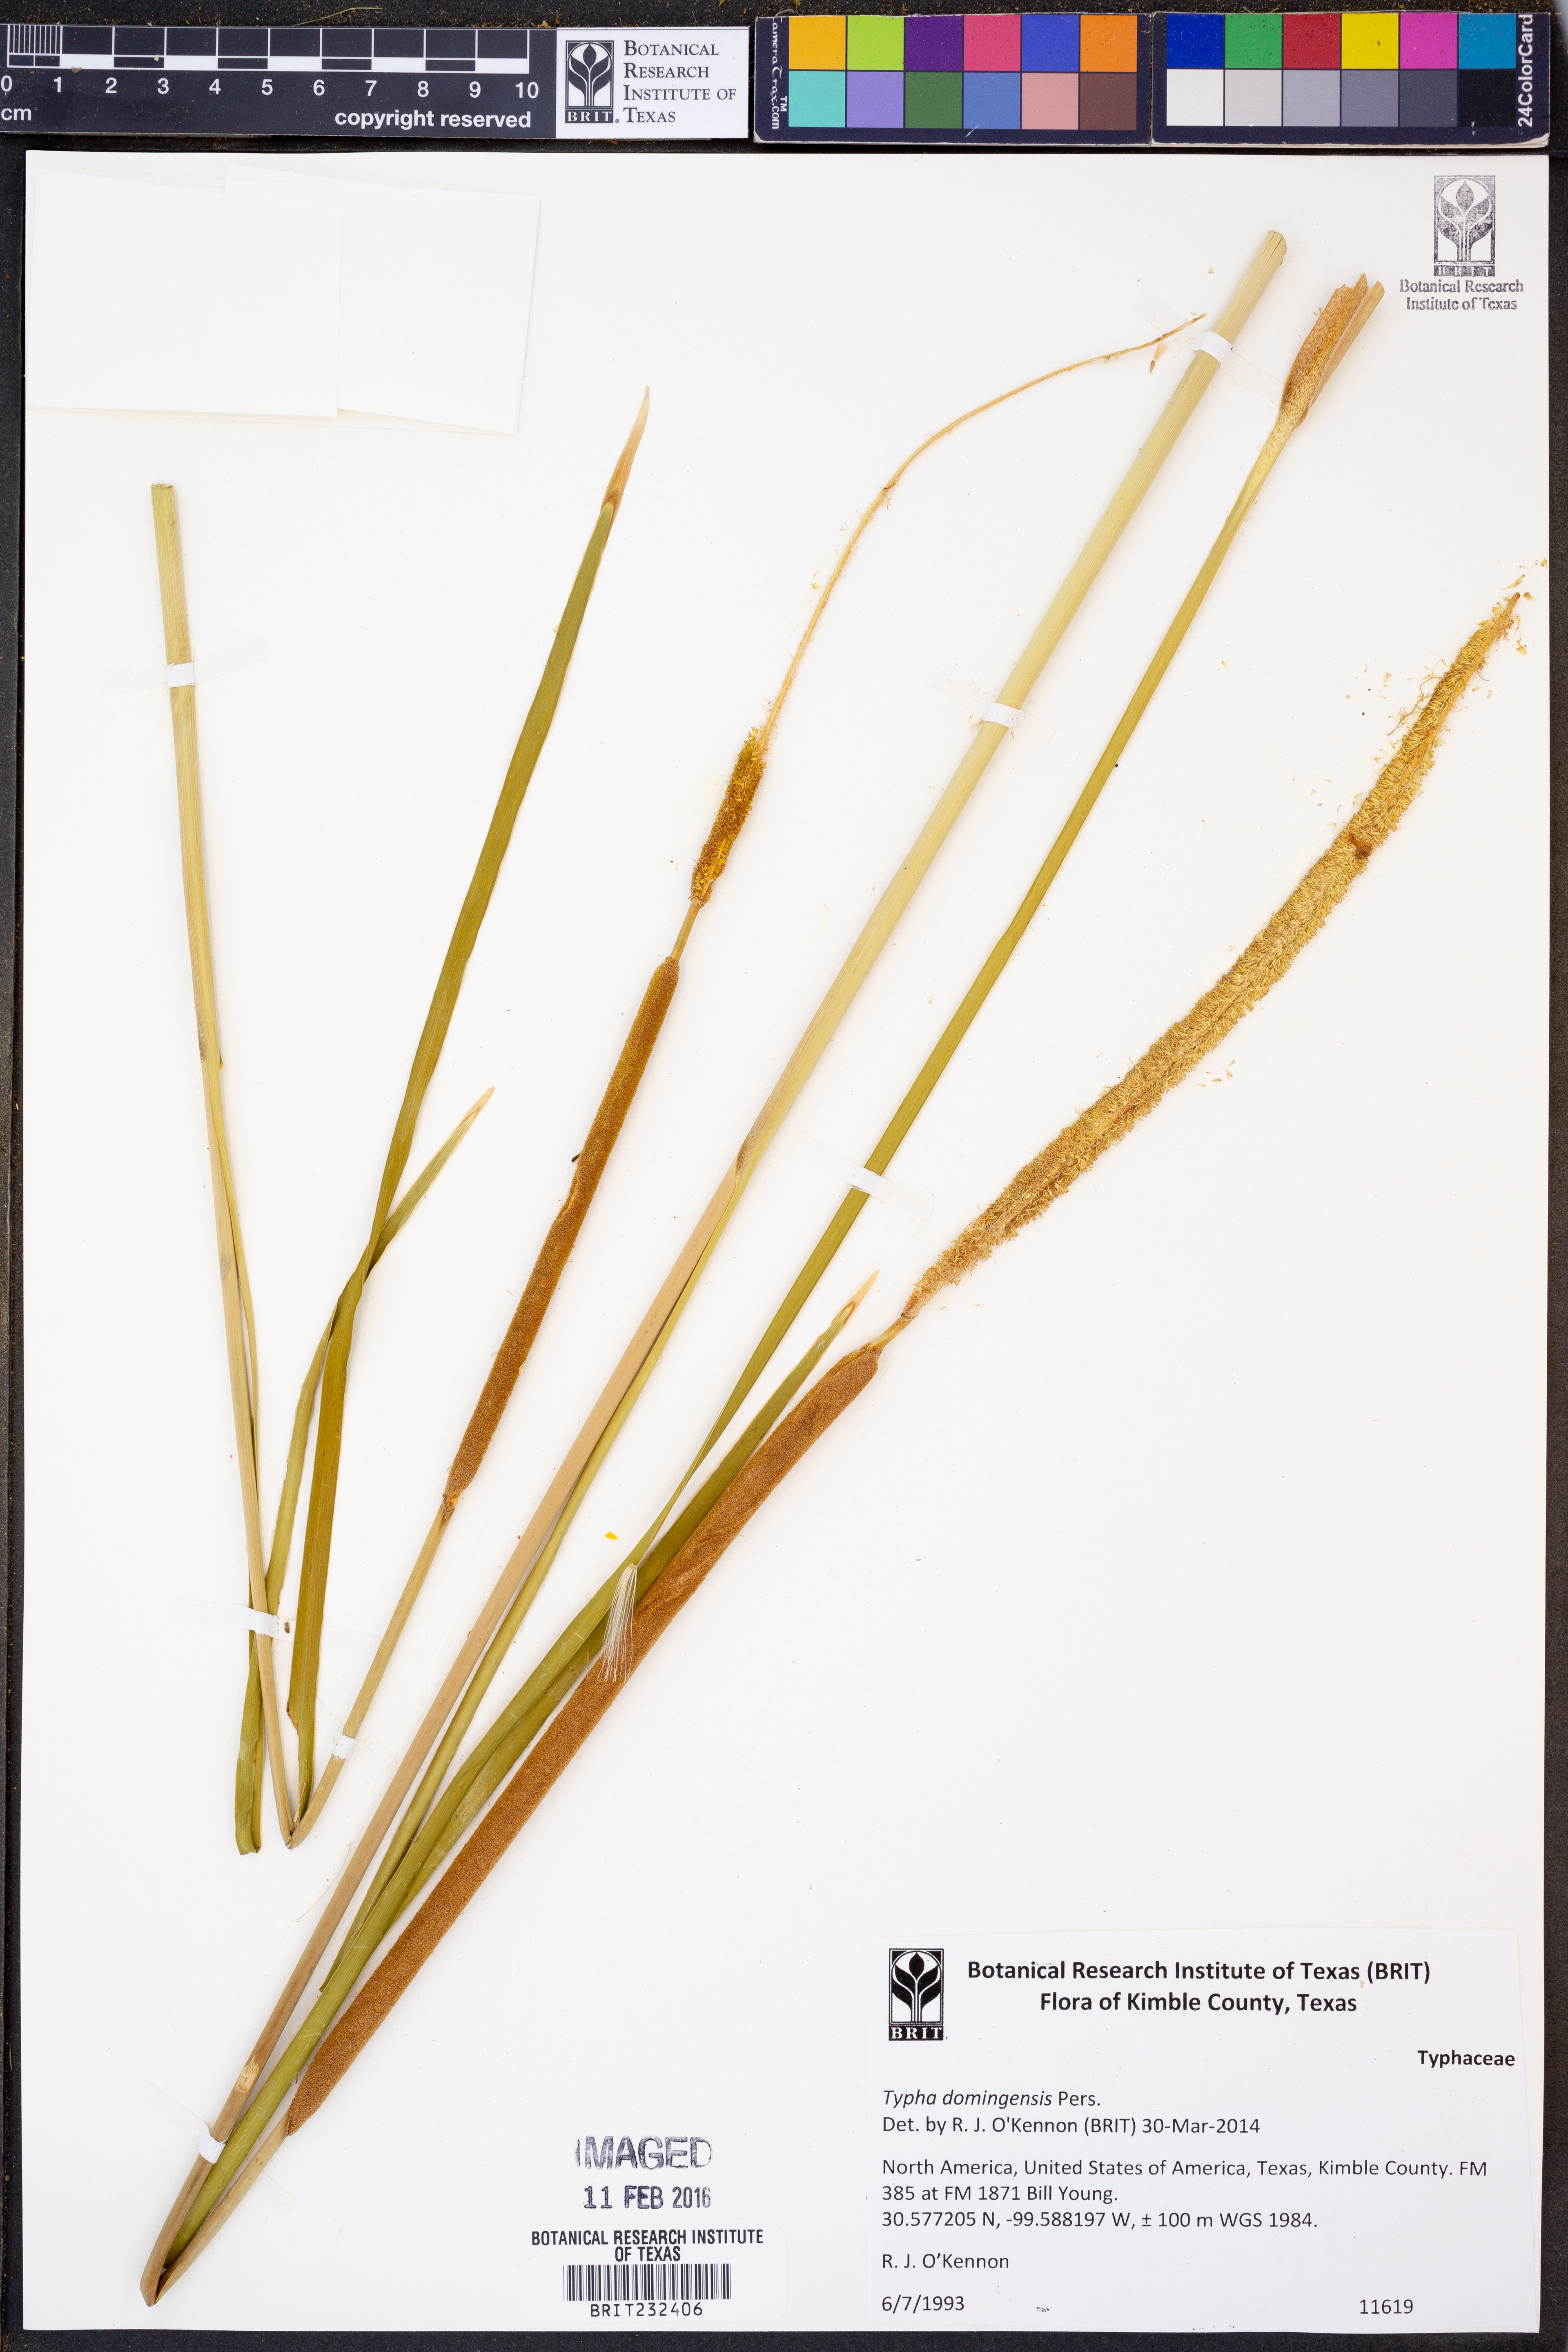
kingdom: Plantae
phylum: Tracheophyta
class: Liliopsida
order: Poales
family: Typhaceae
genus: Typha
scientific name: Typha domingensis
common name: Southern cattail
